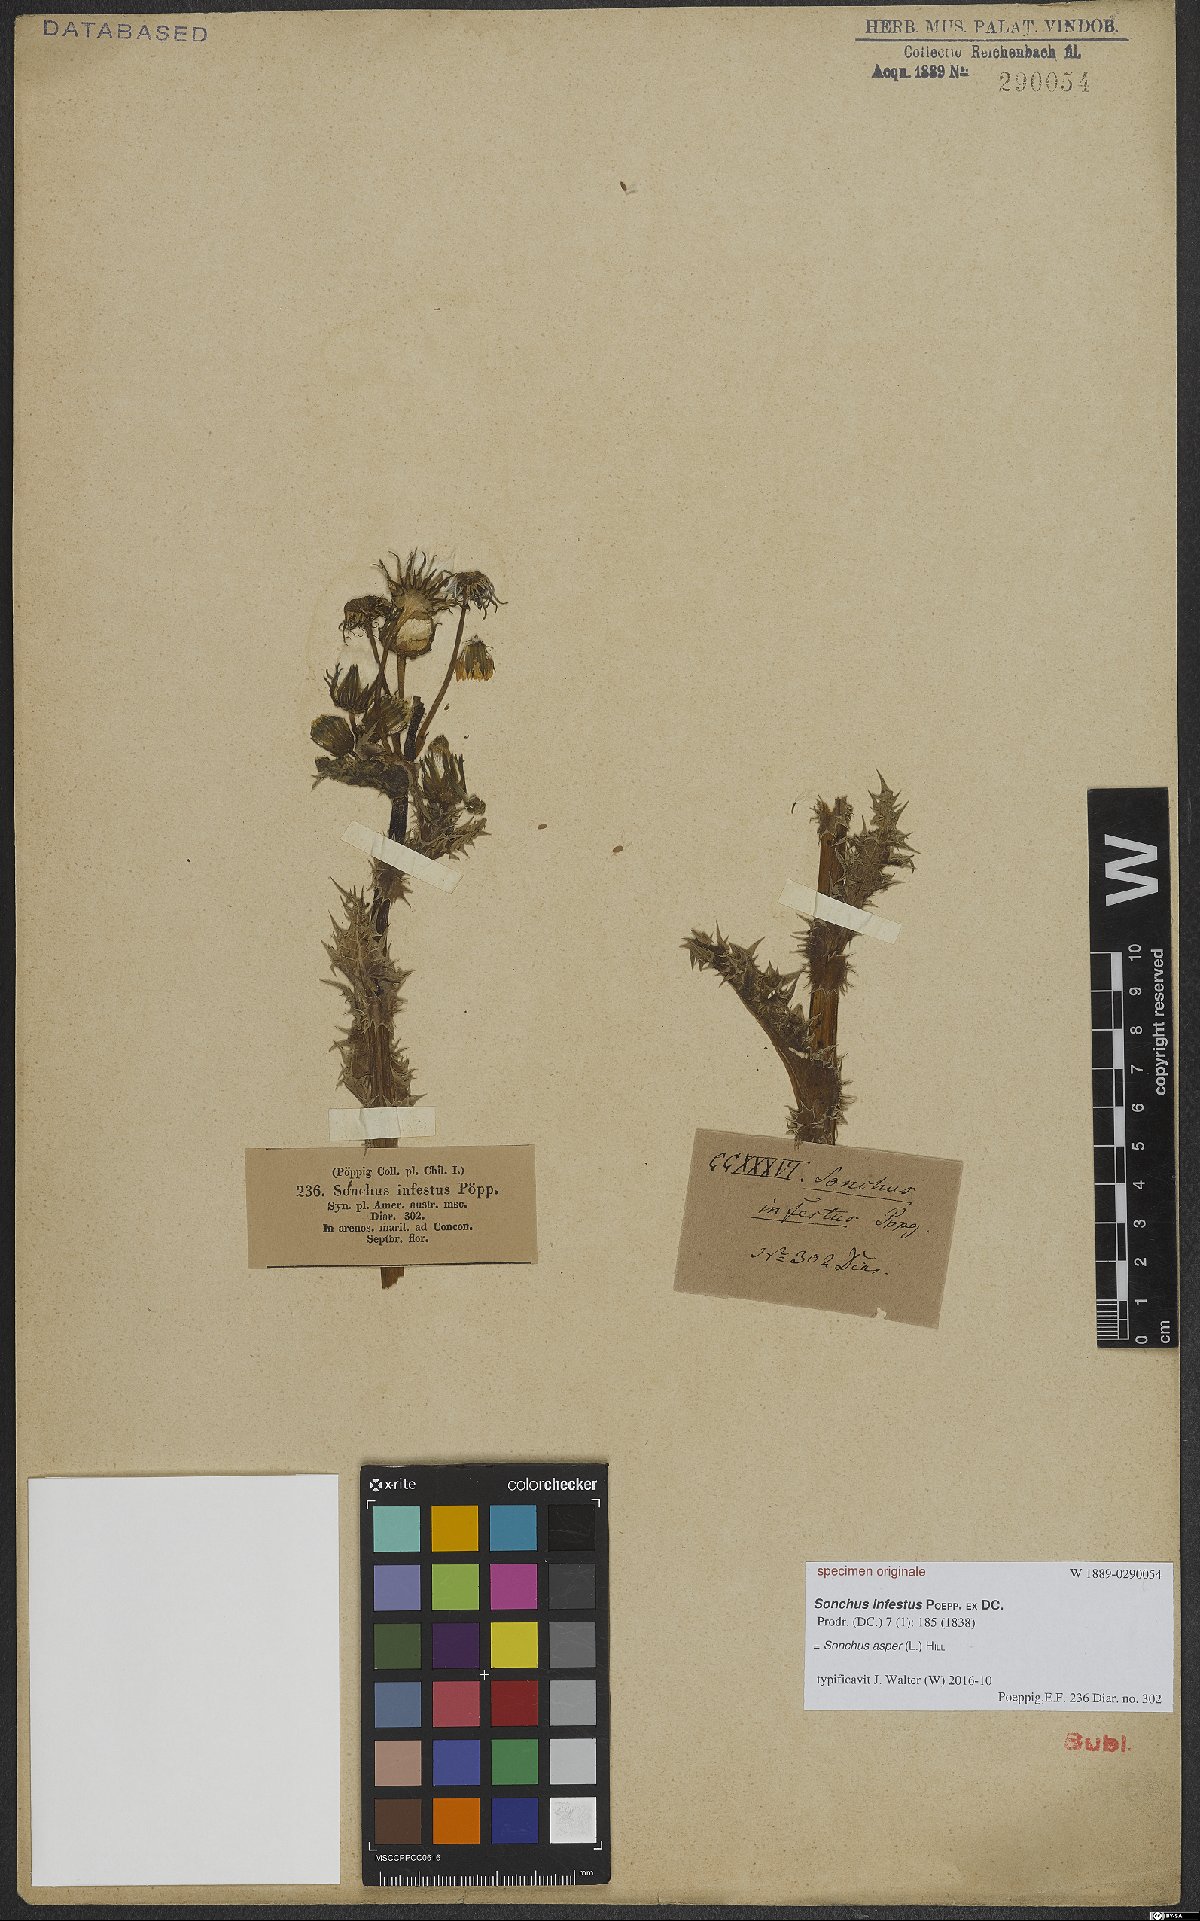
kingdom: Plantae
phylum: Tracheophyta
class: Magnoliopsida
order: Asterales
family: Asteraceae
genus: Sonchus
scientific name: Sonchus asper
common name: Prickly sow-thistle
